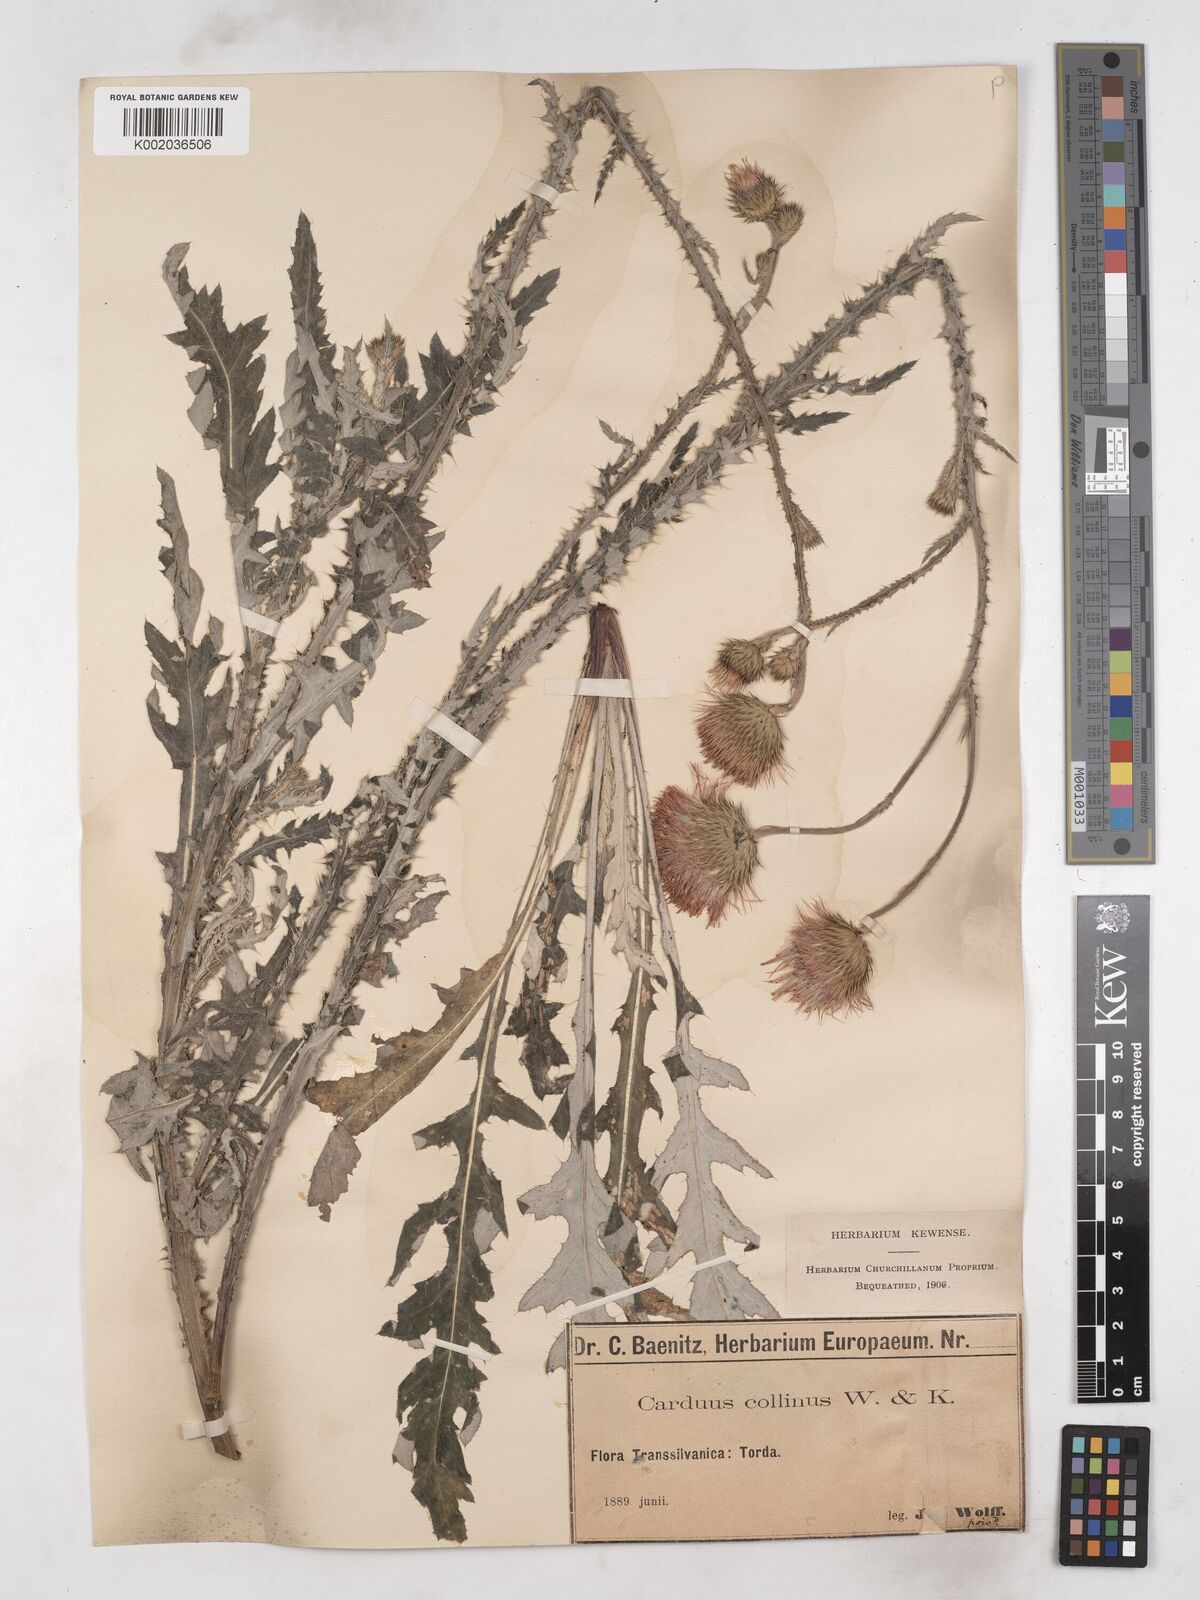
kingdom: Plantae
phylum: Tracheophyta
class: Magnoliopsida
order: Asterales
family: Asteraceae
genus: Carduus
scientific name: Carduus collinus
